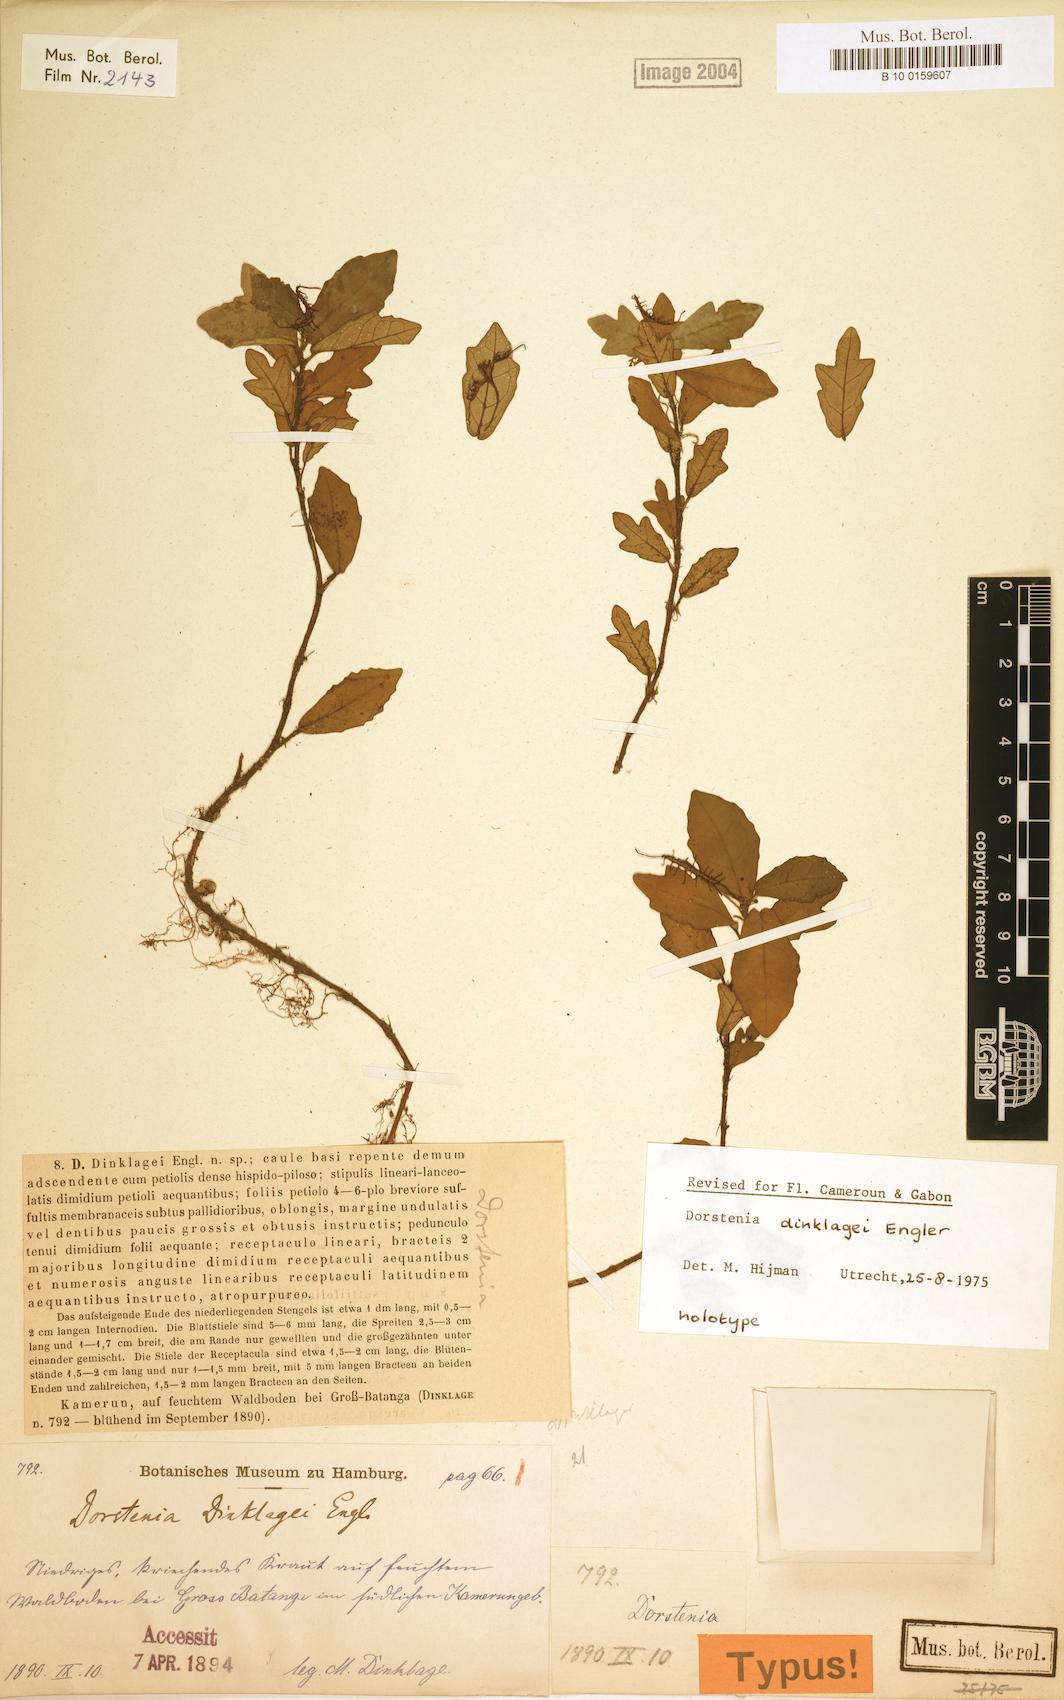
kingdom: Plantae
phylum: Tracheophyta
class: Magnoliopsida
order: Rosales
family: Moraceae
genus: Dorstenia
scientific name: Dorstenia dinklagei
